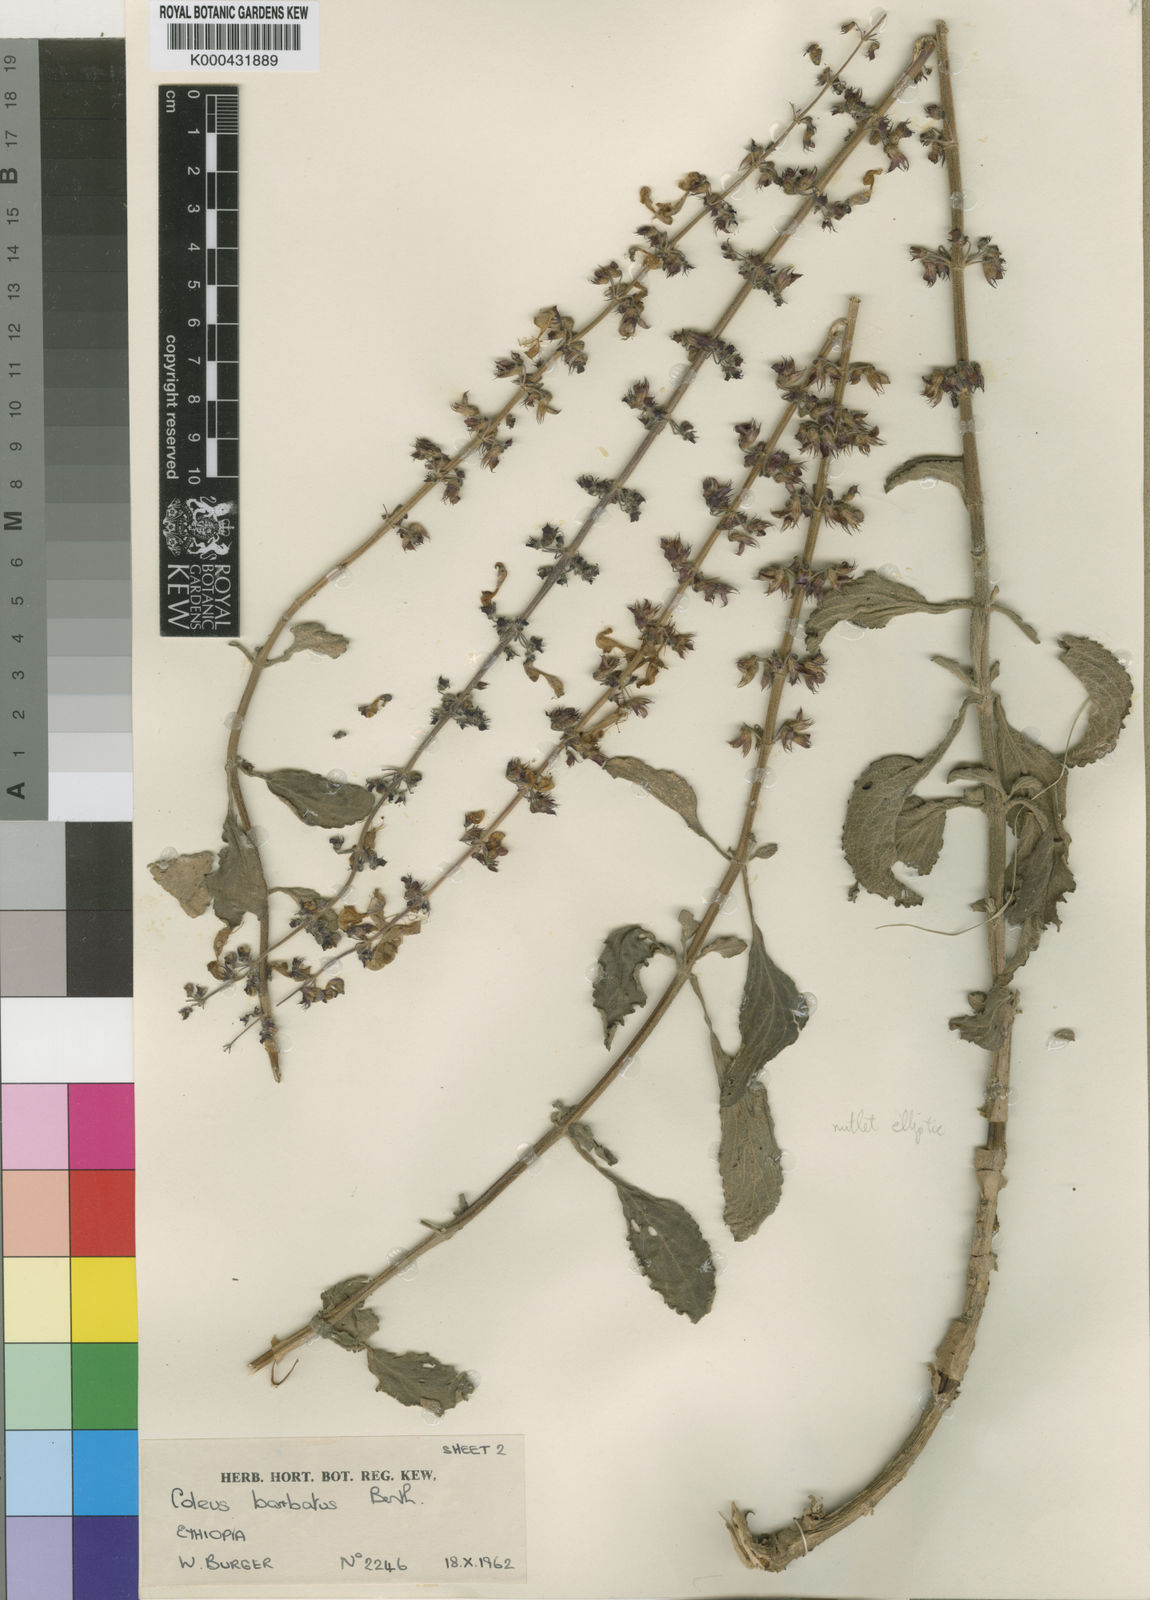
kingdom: Plantae
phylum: Tracheophyta
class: Magnoliopsida
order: Lamiales
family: Lamiaceae
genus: Coleus
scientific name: Coleus barbatus
